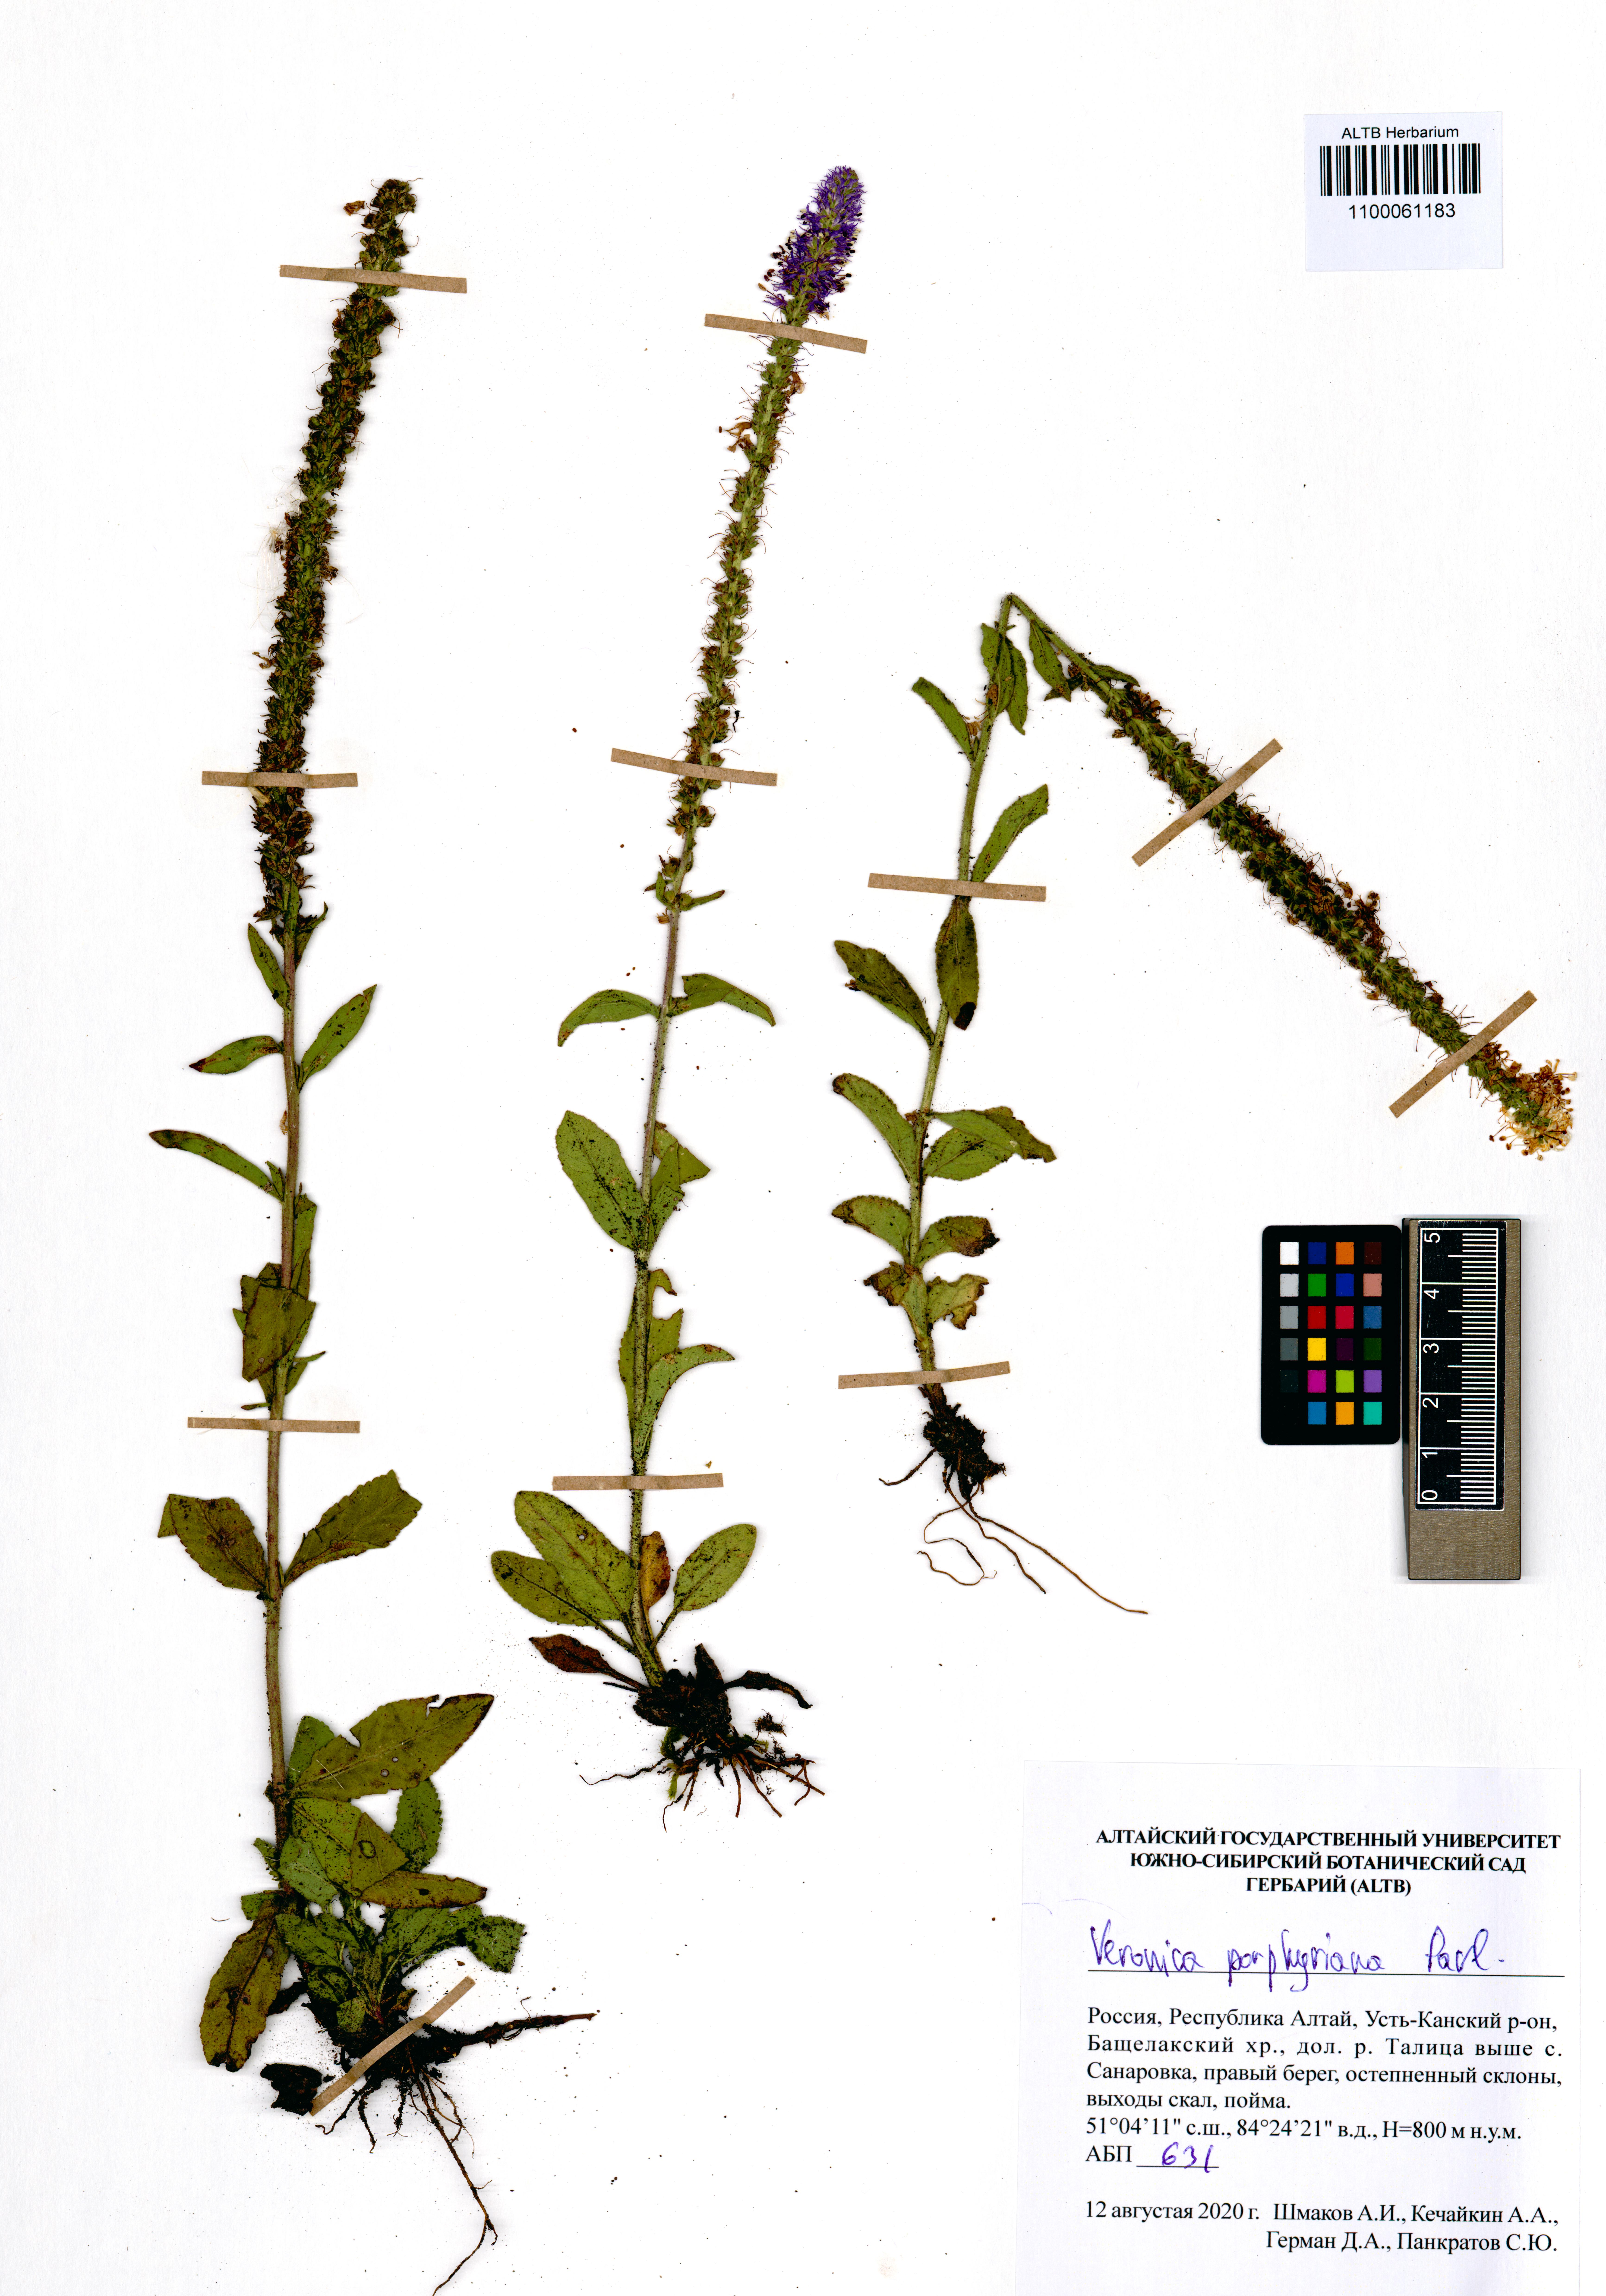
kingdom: Plantae
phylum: Tracheophyta
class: Magnoliopsida
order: Lamiales
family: Plantaginaceae
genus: Veronica
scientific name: Veronica porphyriana
